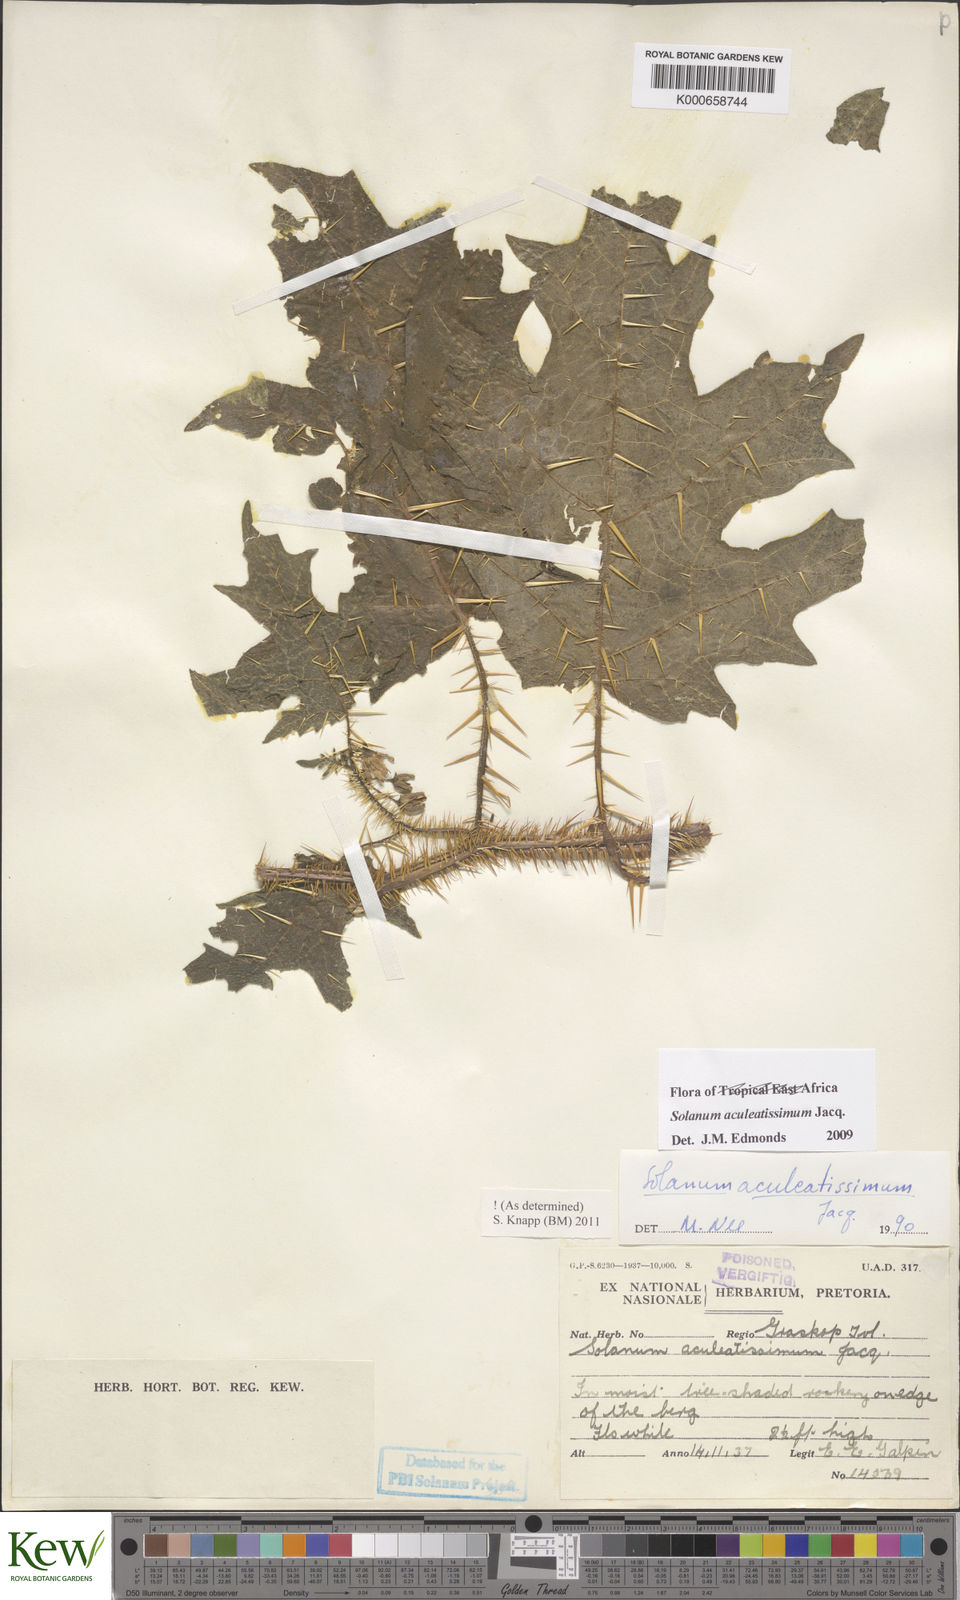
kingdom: Plantae
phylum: Tracheophyta
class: Magnoliopsida
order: Solanales
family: Solanaceae
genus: Solanum
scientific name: Solanum aculeatissimum
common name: Dutch eggplant
